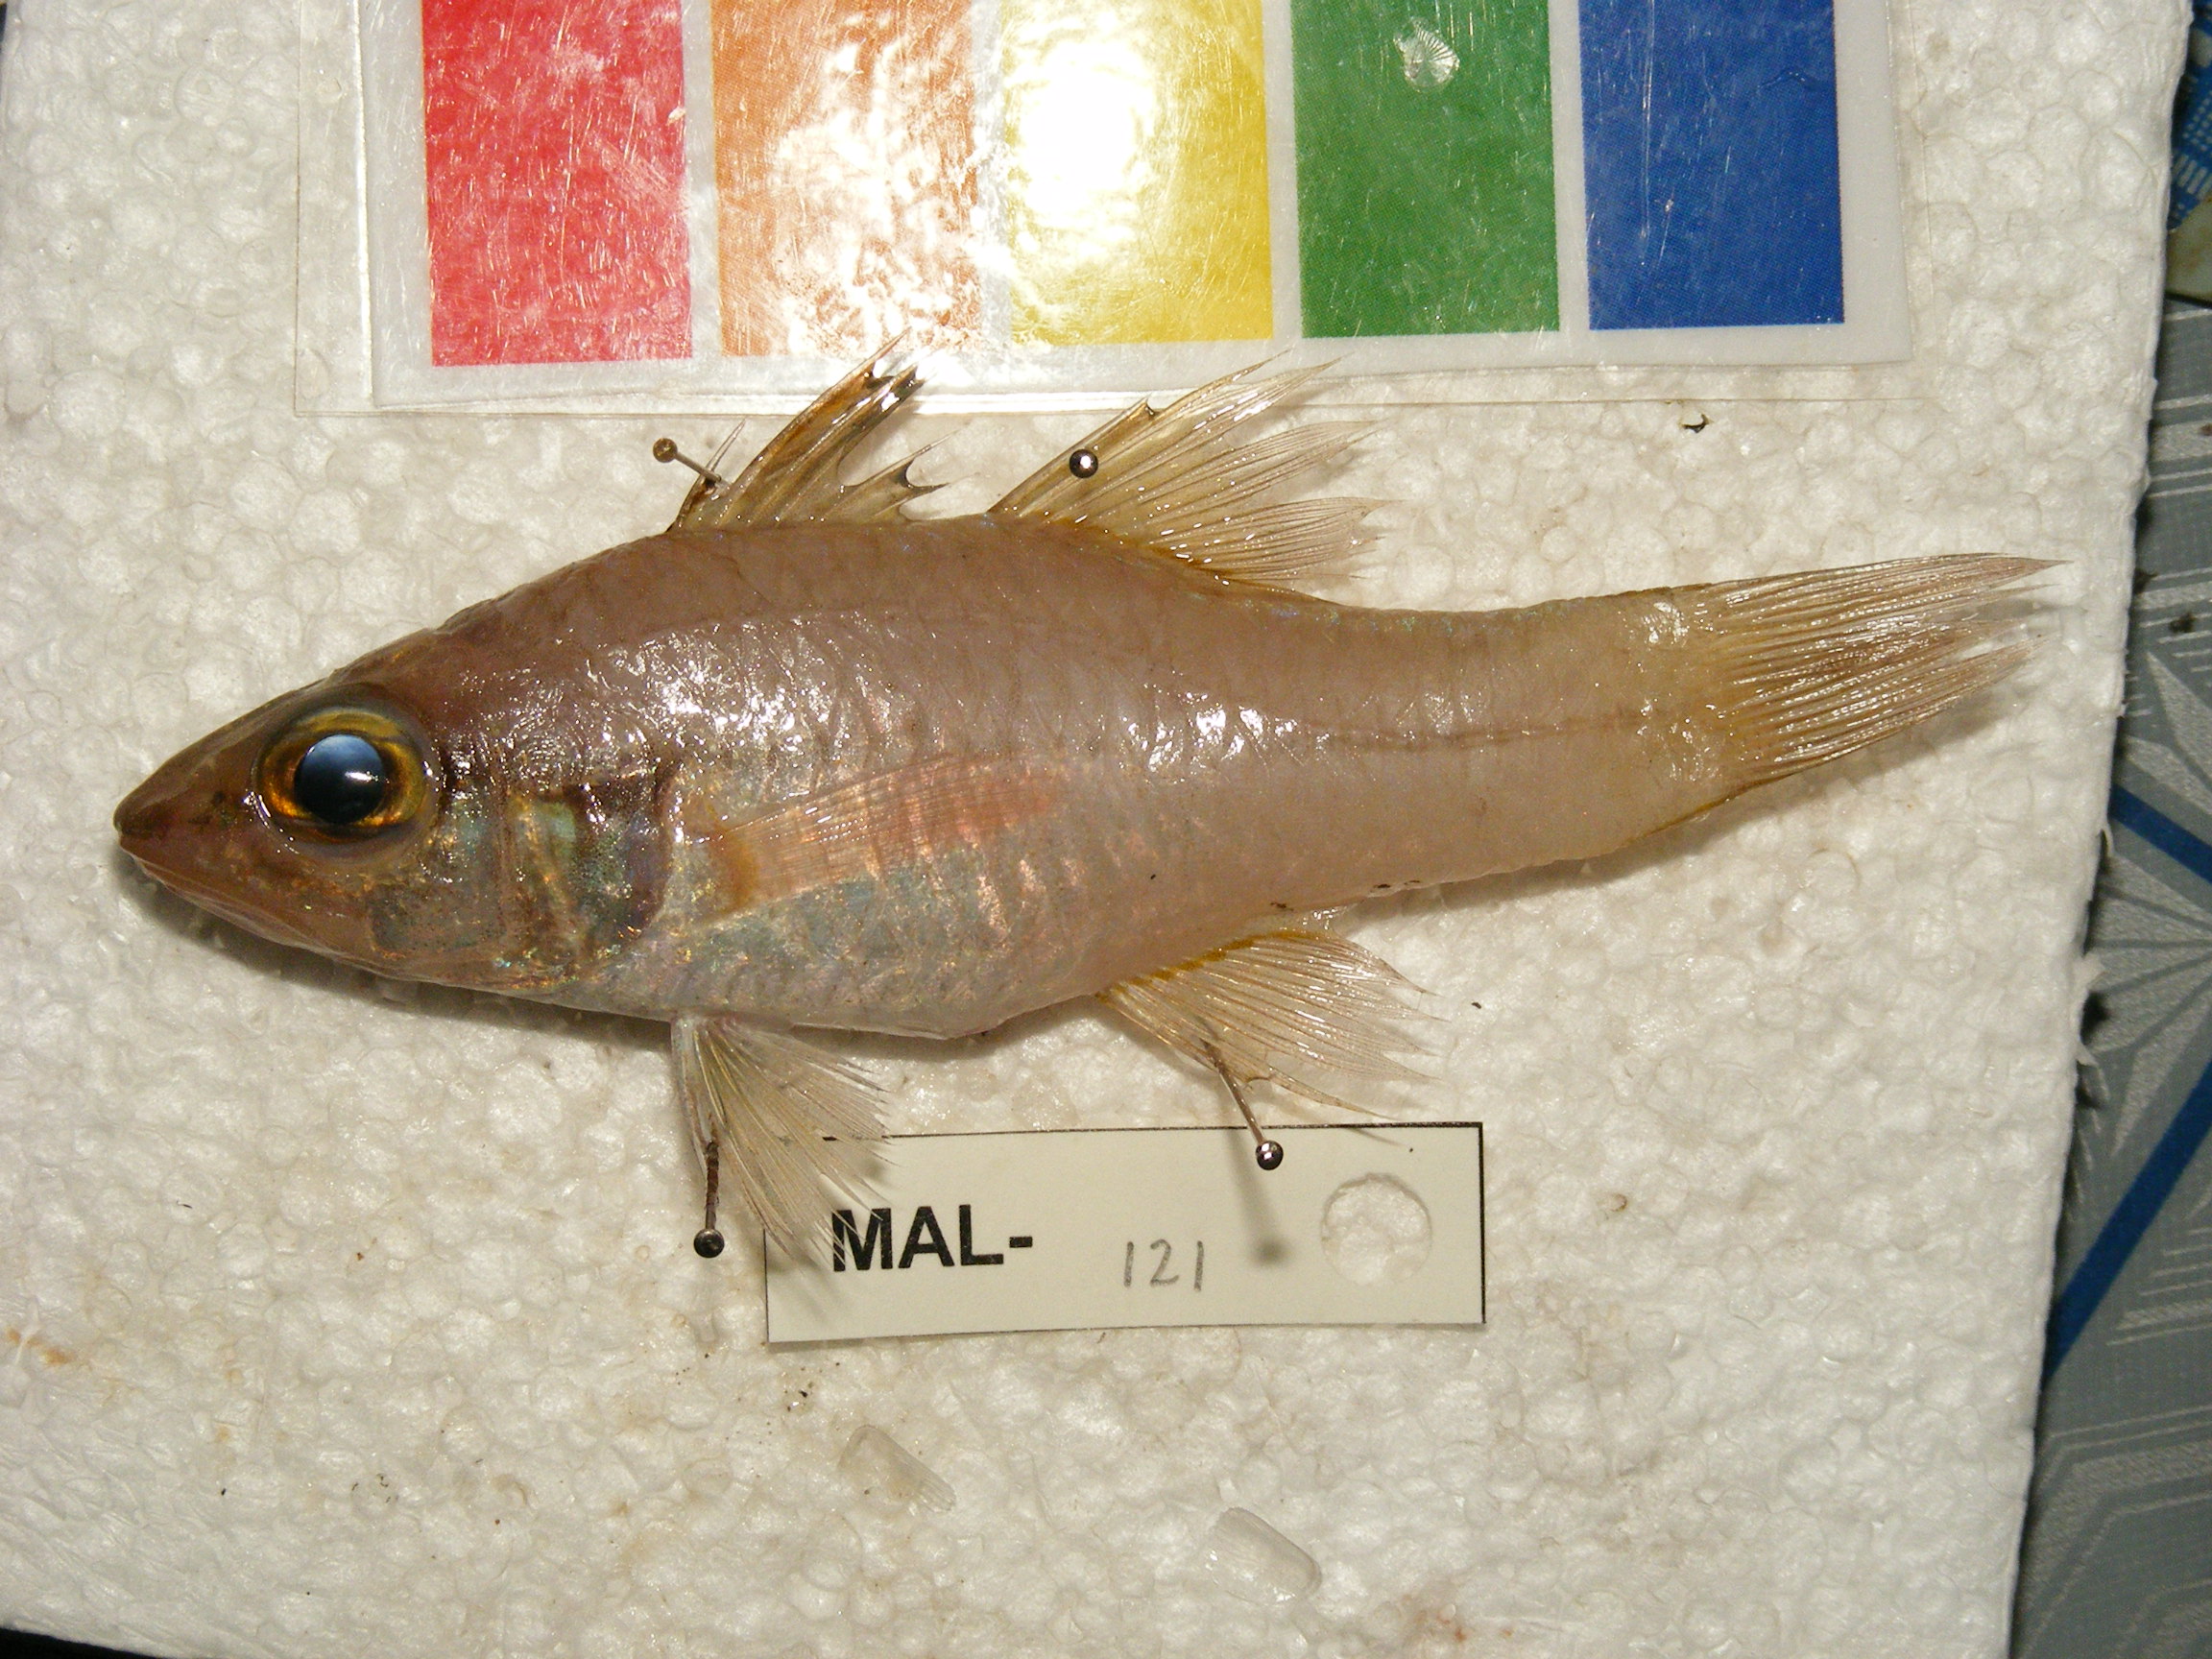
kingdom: Animalia
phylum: Chordata
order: Perciformes
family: Apogonidae
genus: Pristiapogon
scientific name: Pristiapogon abrogramma
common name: Lateralstripe cardinalfish
